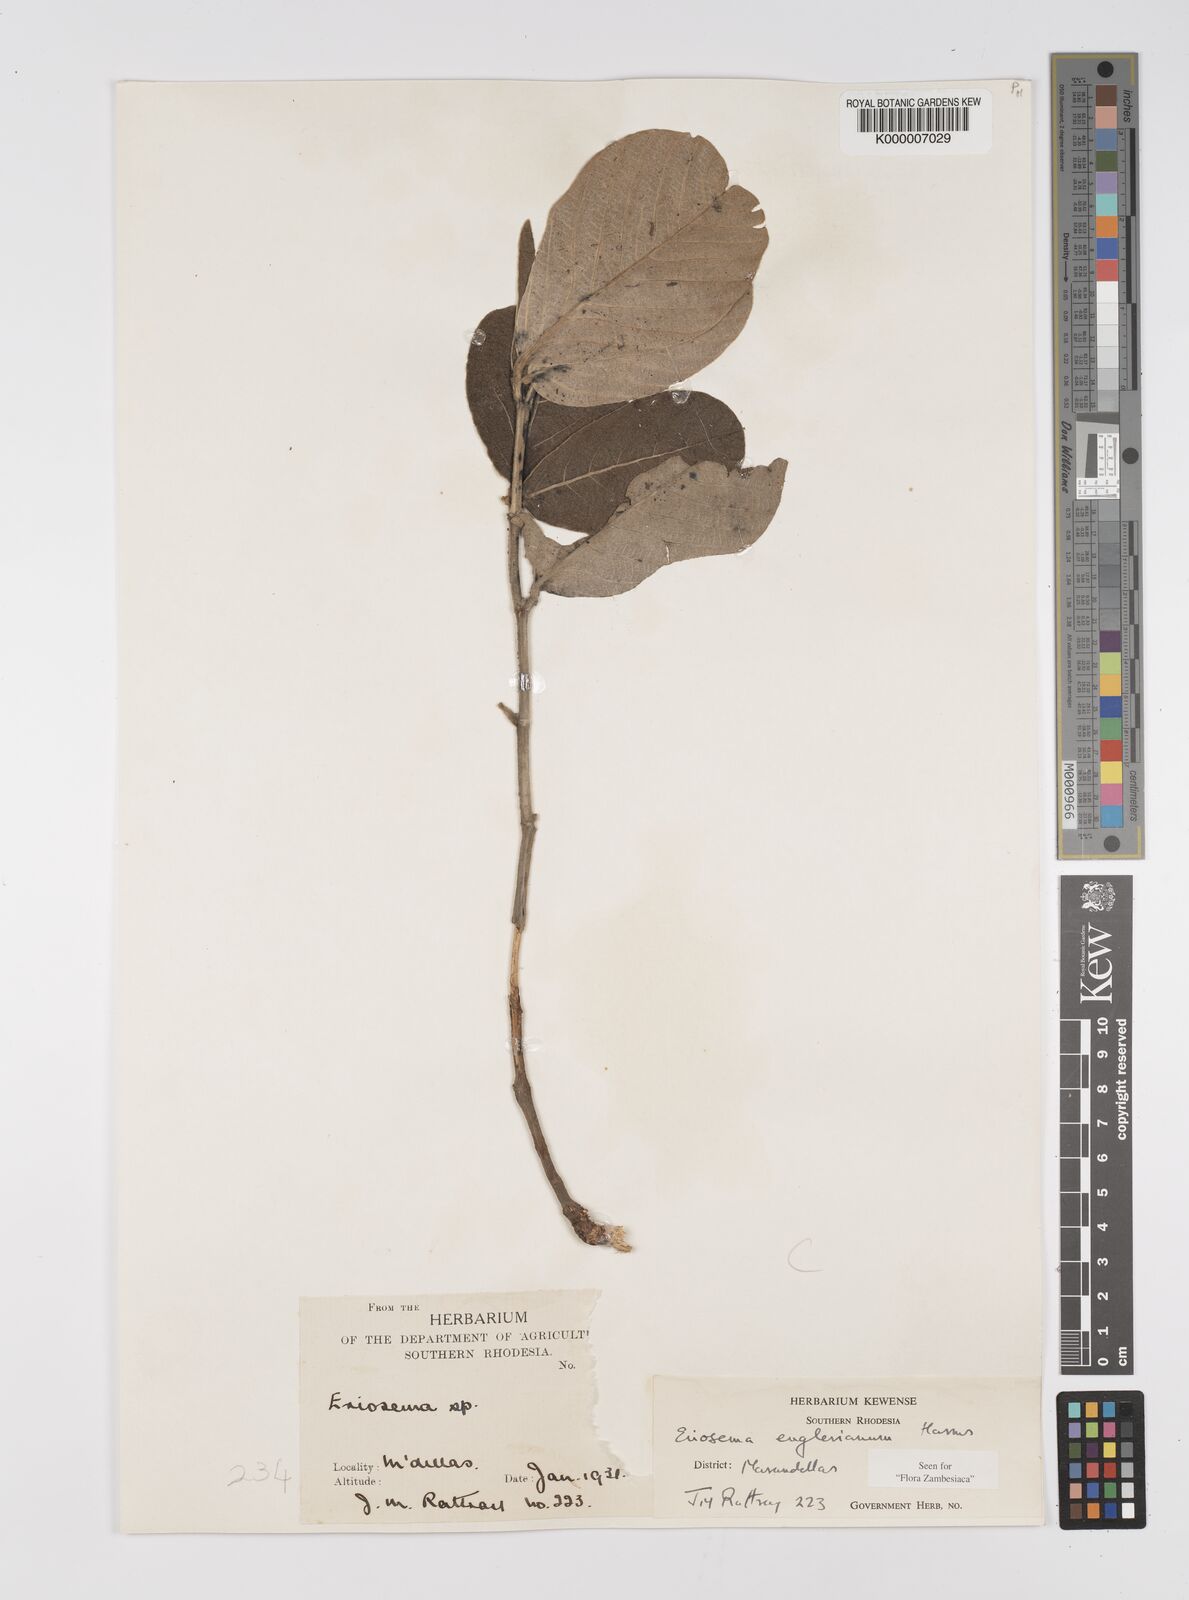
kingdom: Plantae
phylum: Tracheophyta
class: Magnoliopsida
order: Fabales
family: Fabaceae
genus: Eriosema
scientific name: Eriosema englerianum
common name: Blue bush
